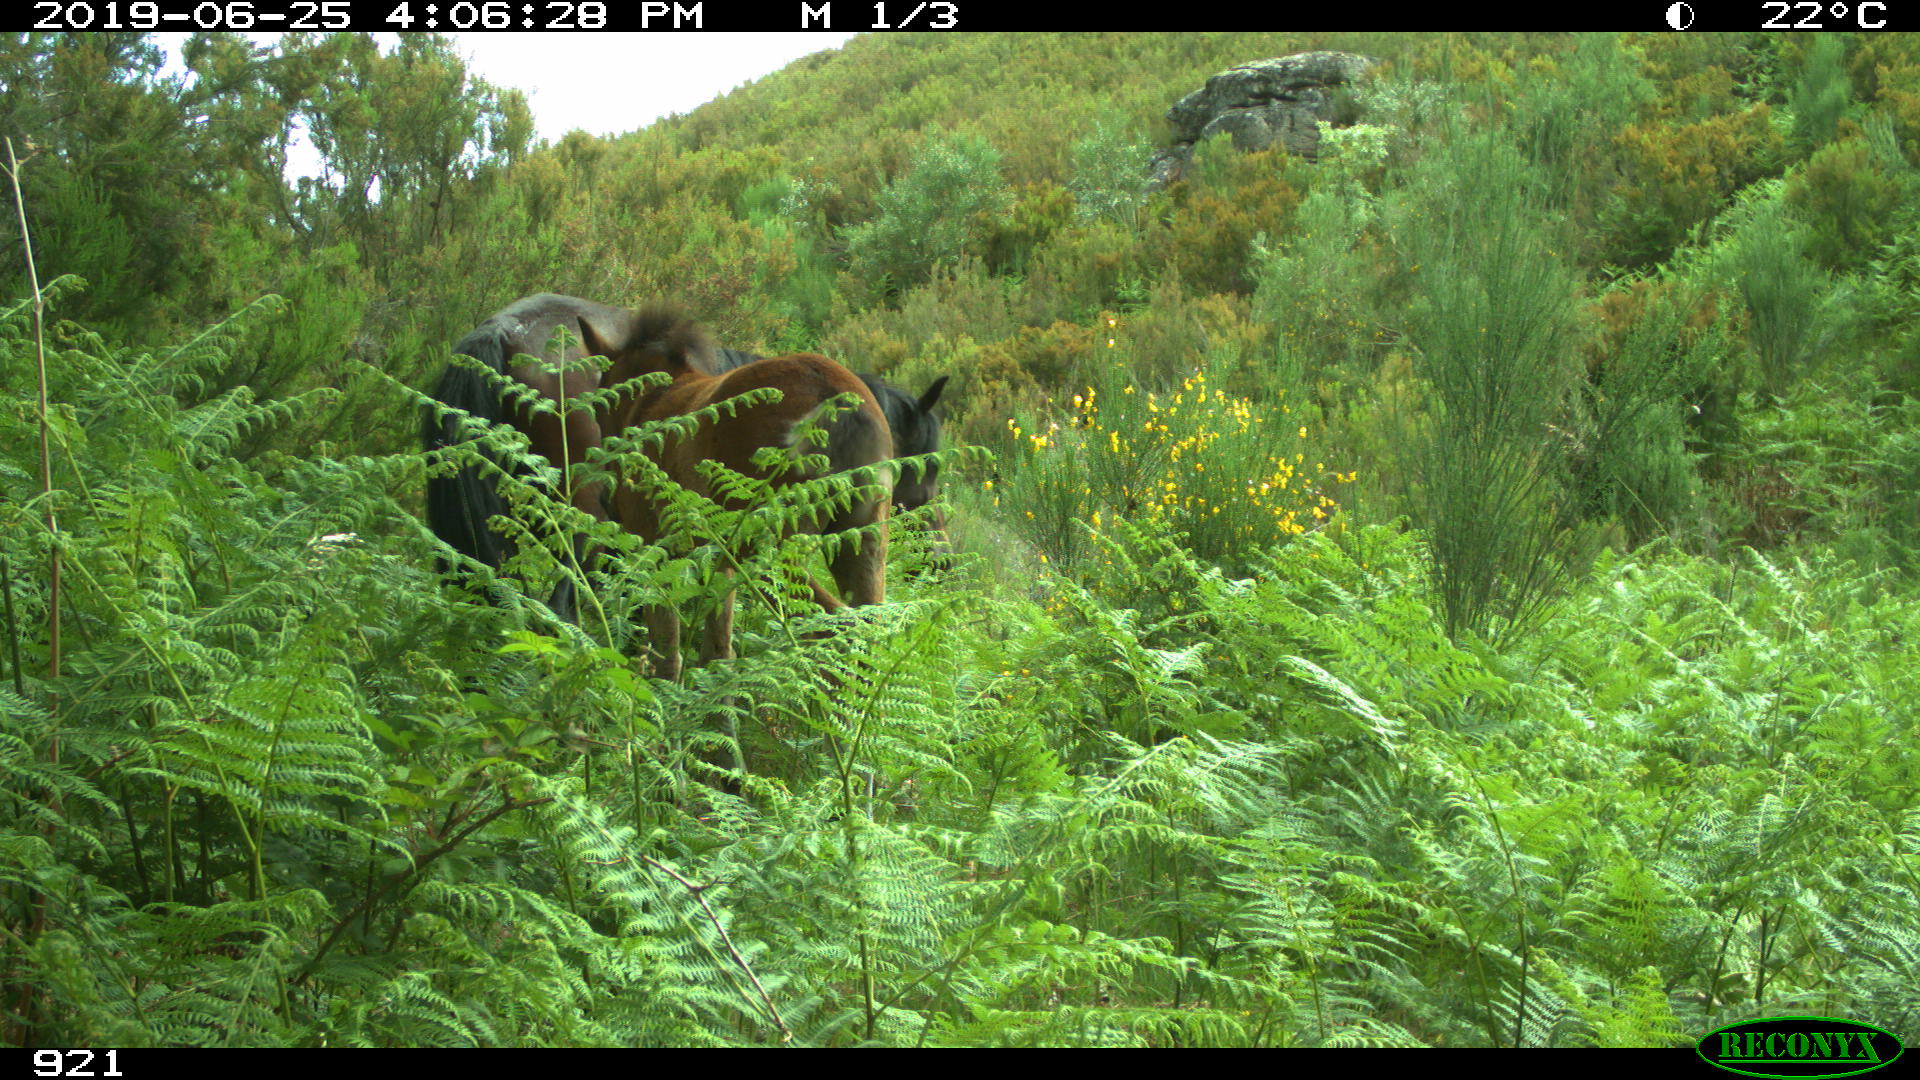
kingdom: Animalia
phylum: Chordata
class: Mammalia
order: Perissodactyla
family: Equidae
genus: Equus
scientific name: Equus caballus
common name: Horse
